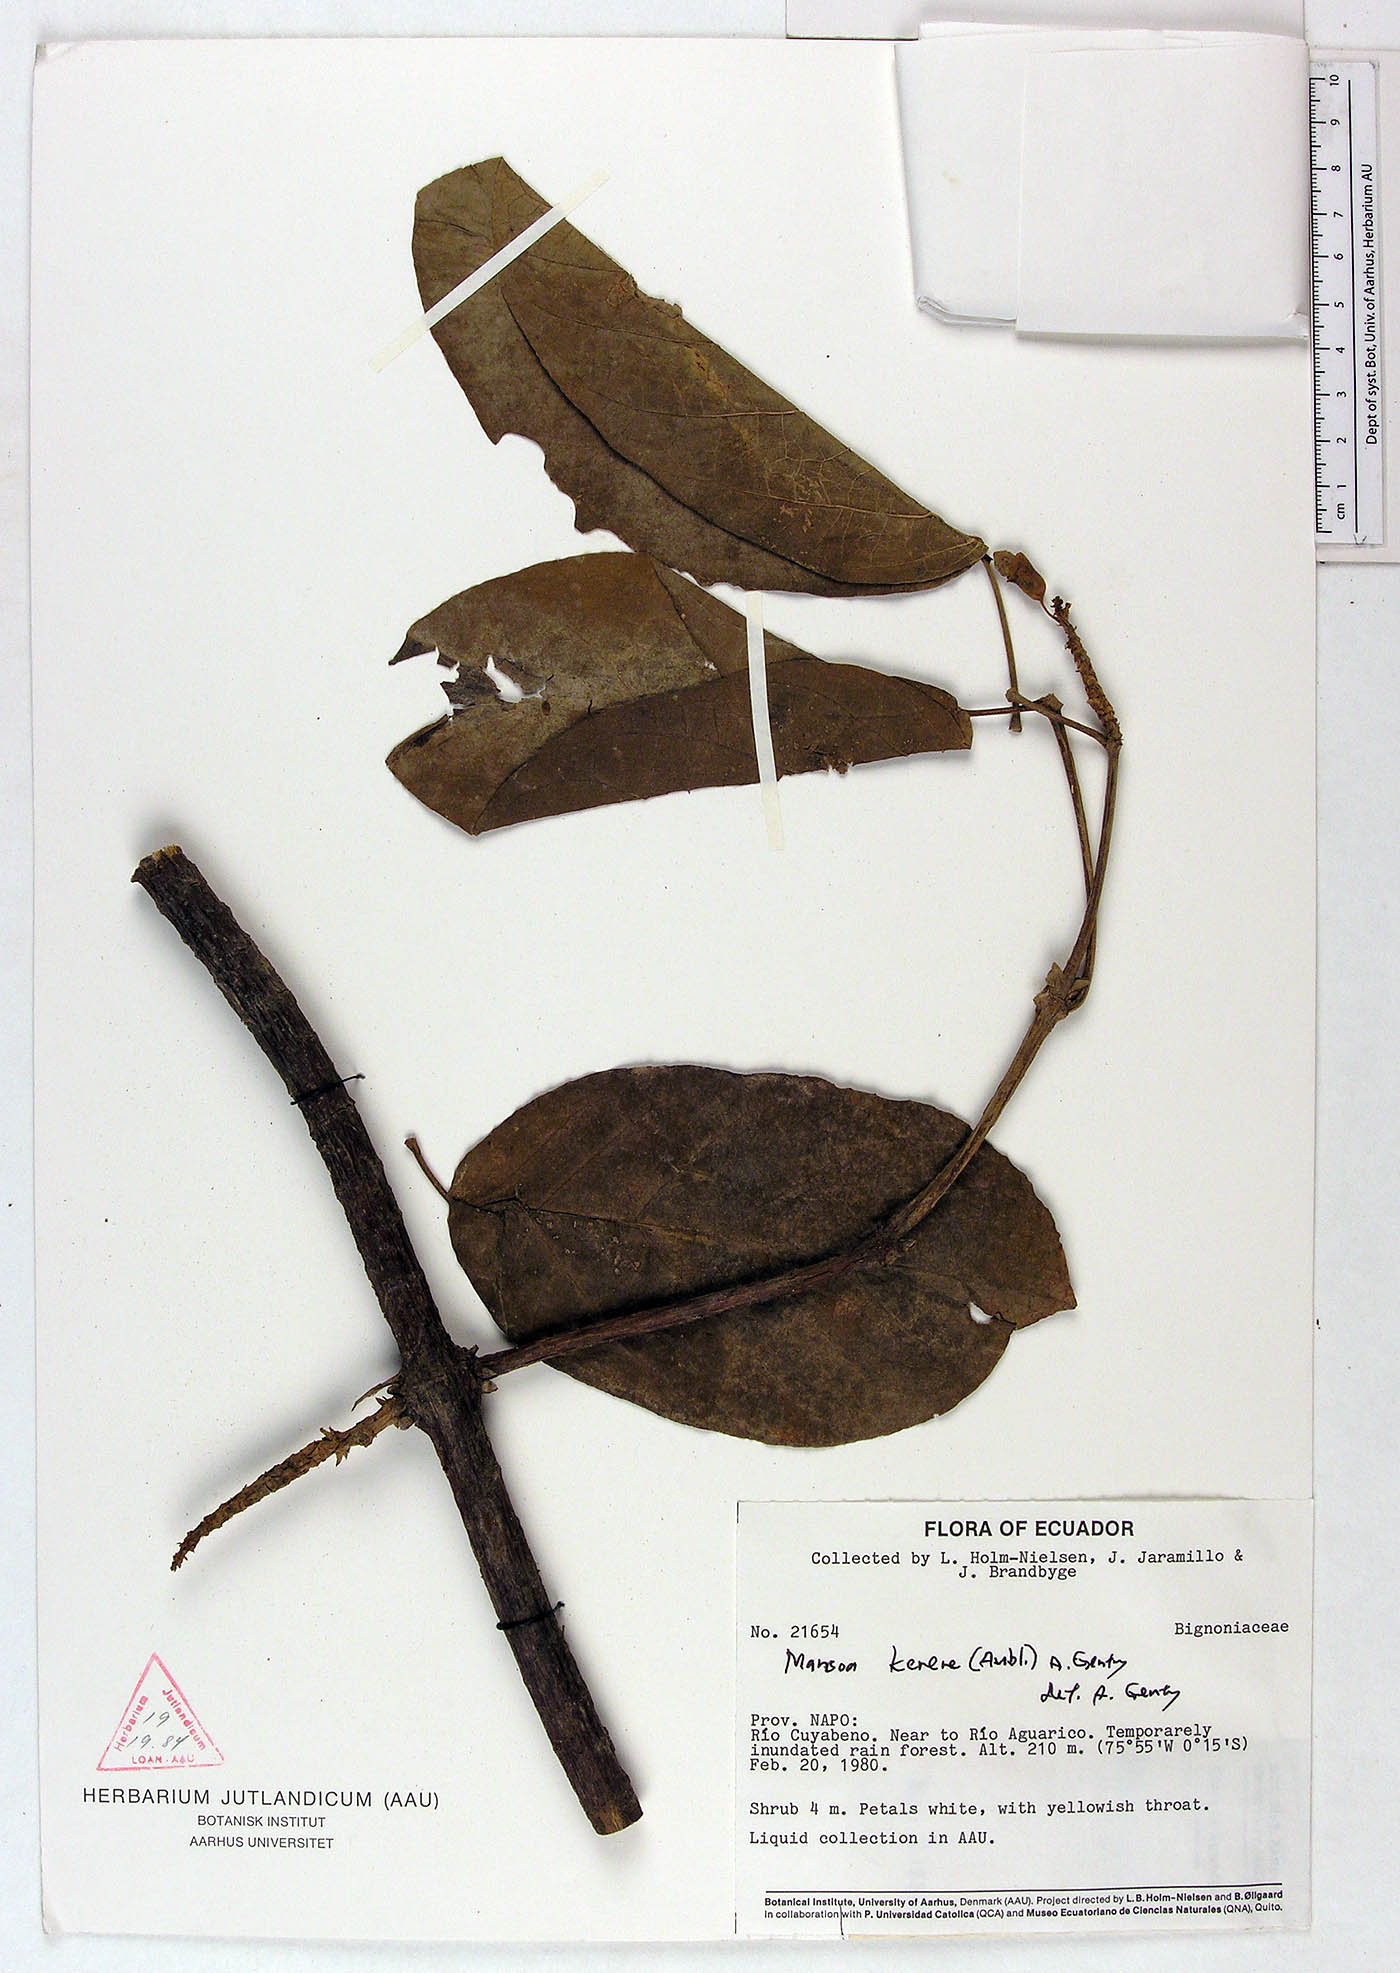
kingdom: Plantae
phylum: Tracheophyta
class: Magnoliopsida
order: Lamiales
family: Bignoniaceae
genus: Pachyptera
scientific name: Pachyptera kerere
